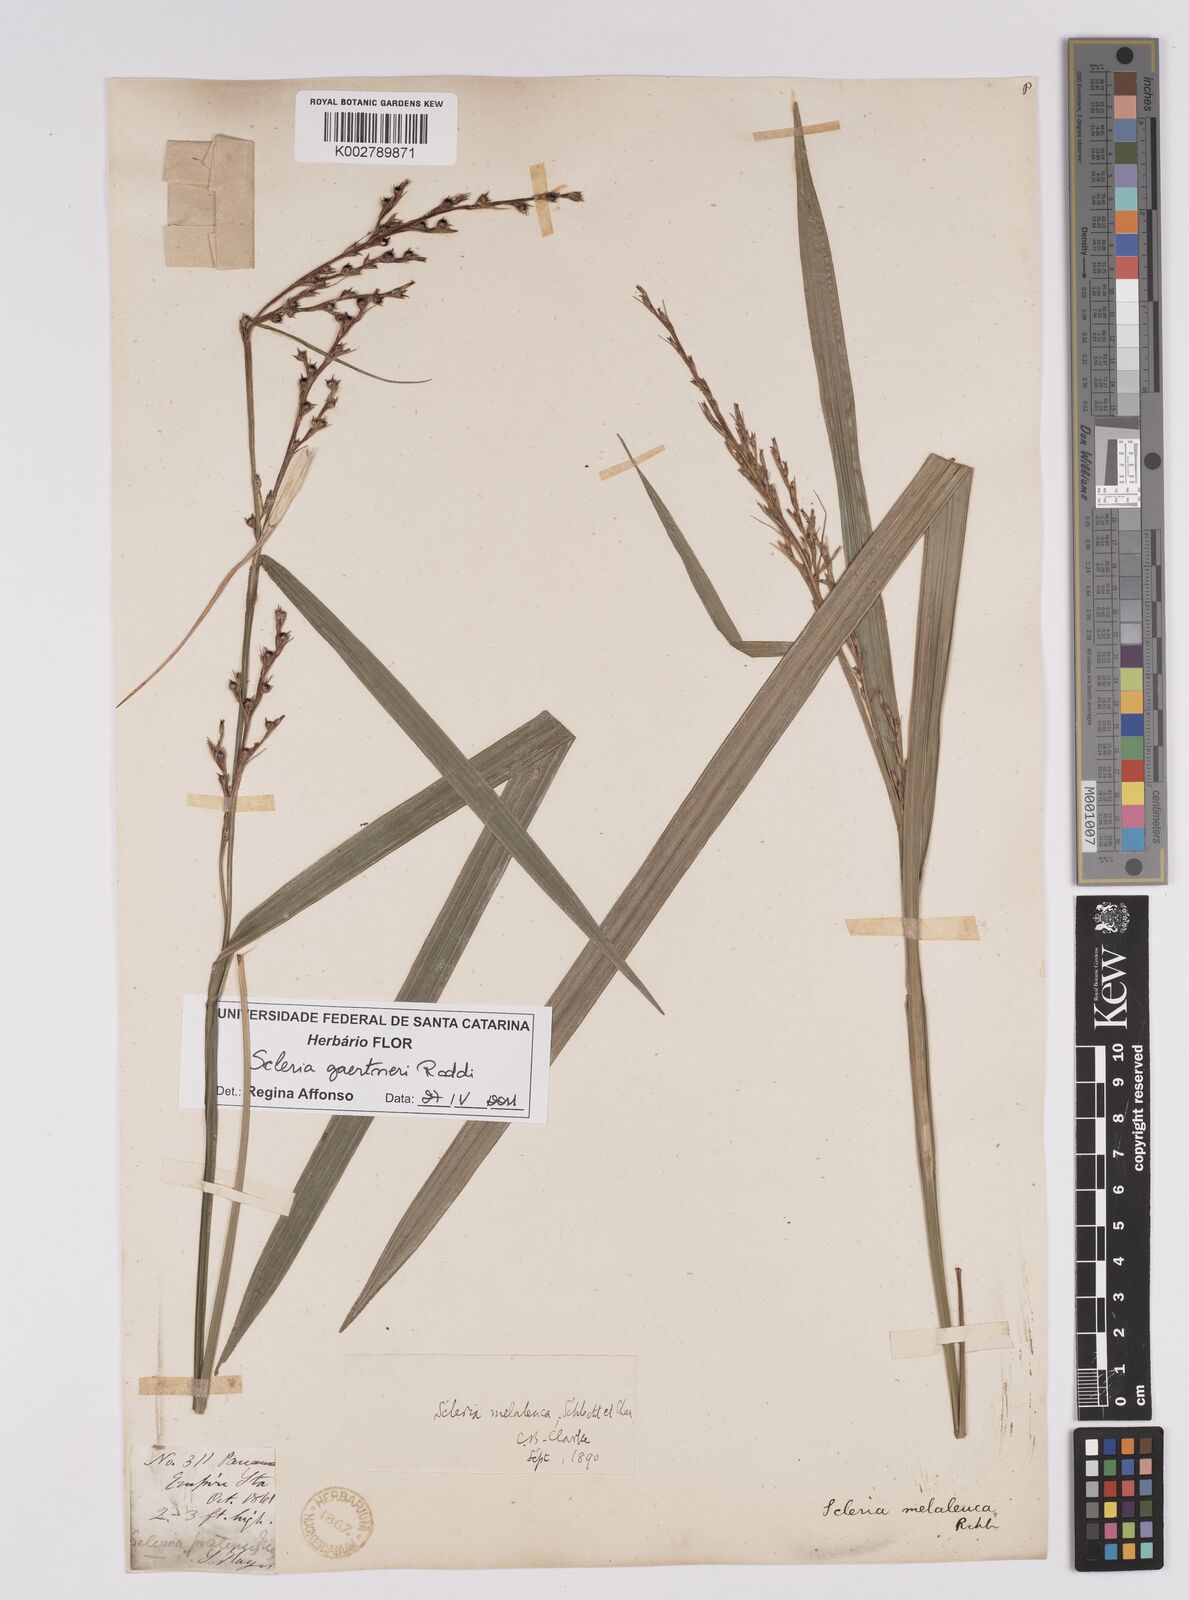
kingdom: Plantae
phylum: Tracheophyta
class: Liliopsida
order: Poales
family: Cyperaceae
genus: Scleria
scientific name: Scleria gaertneri
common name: Cortadera blanca
